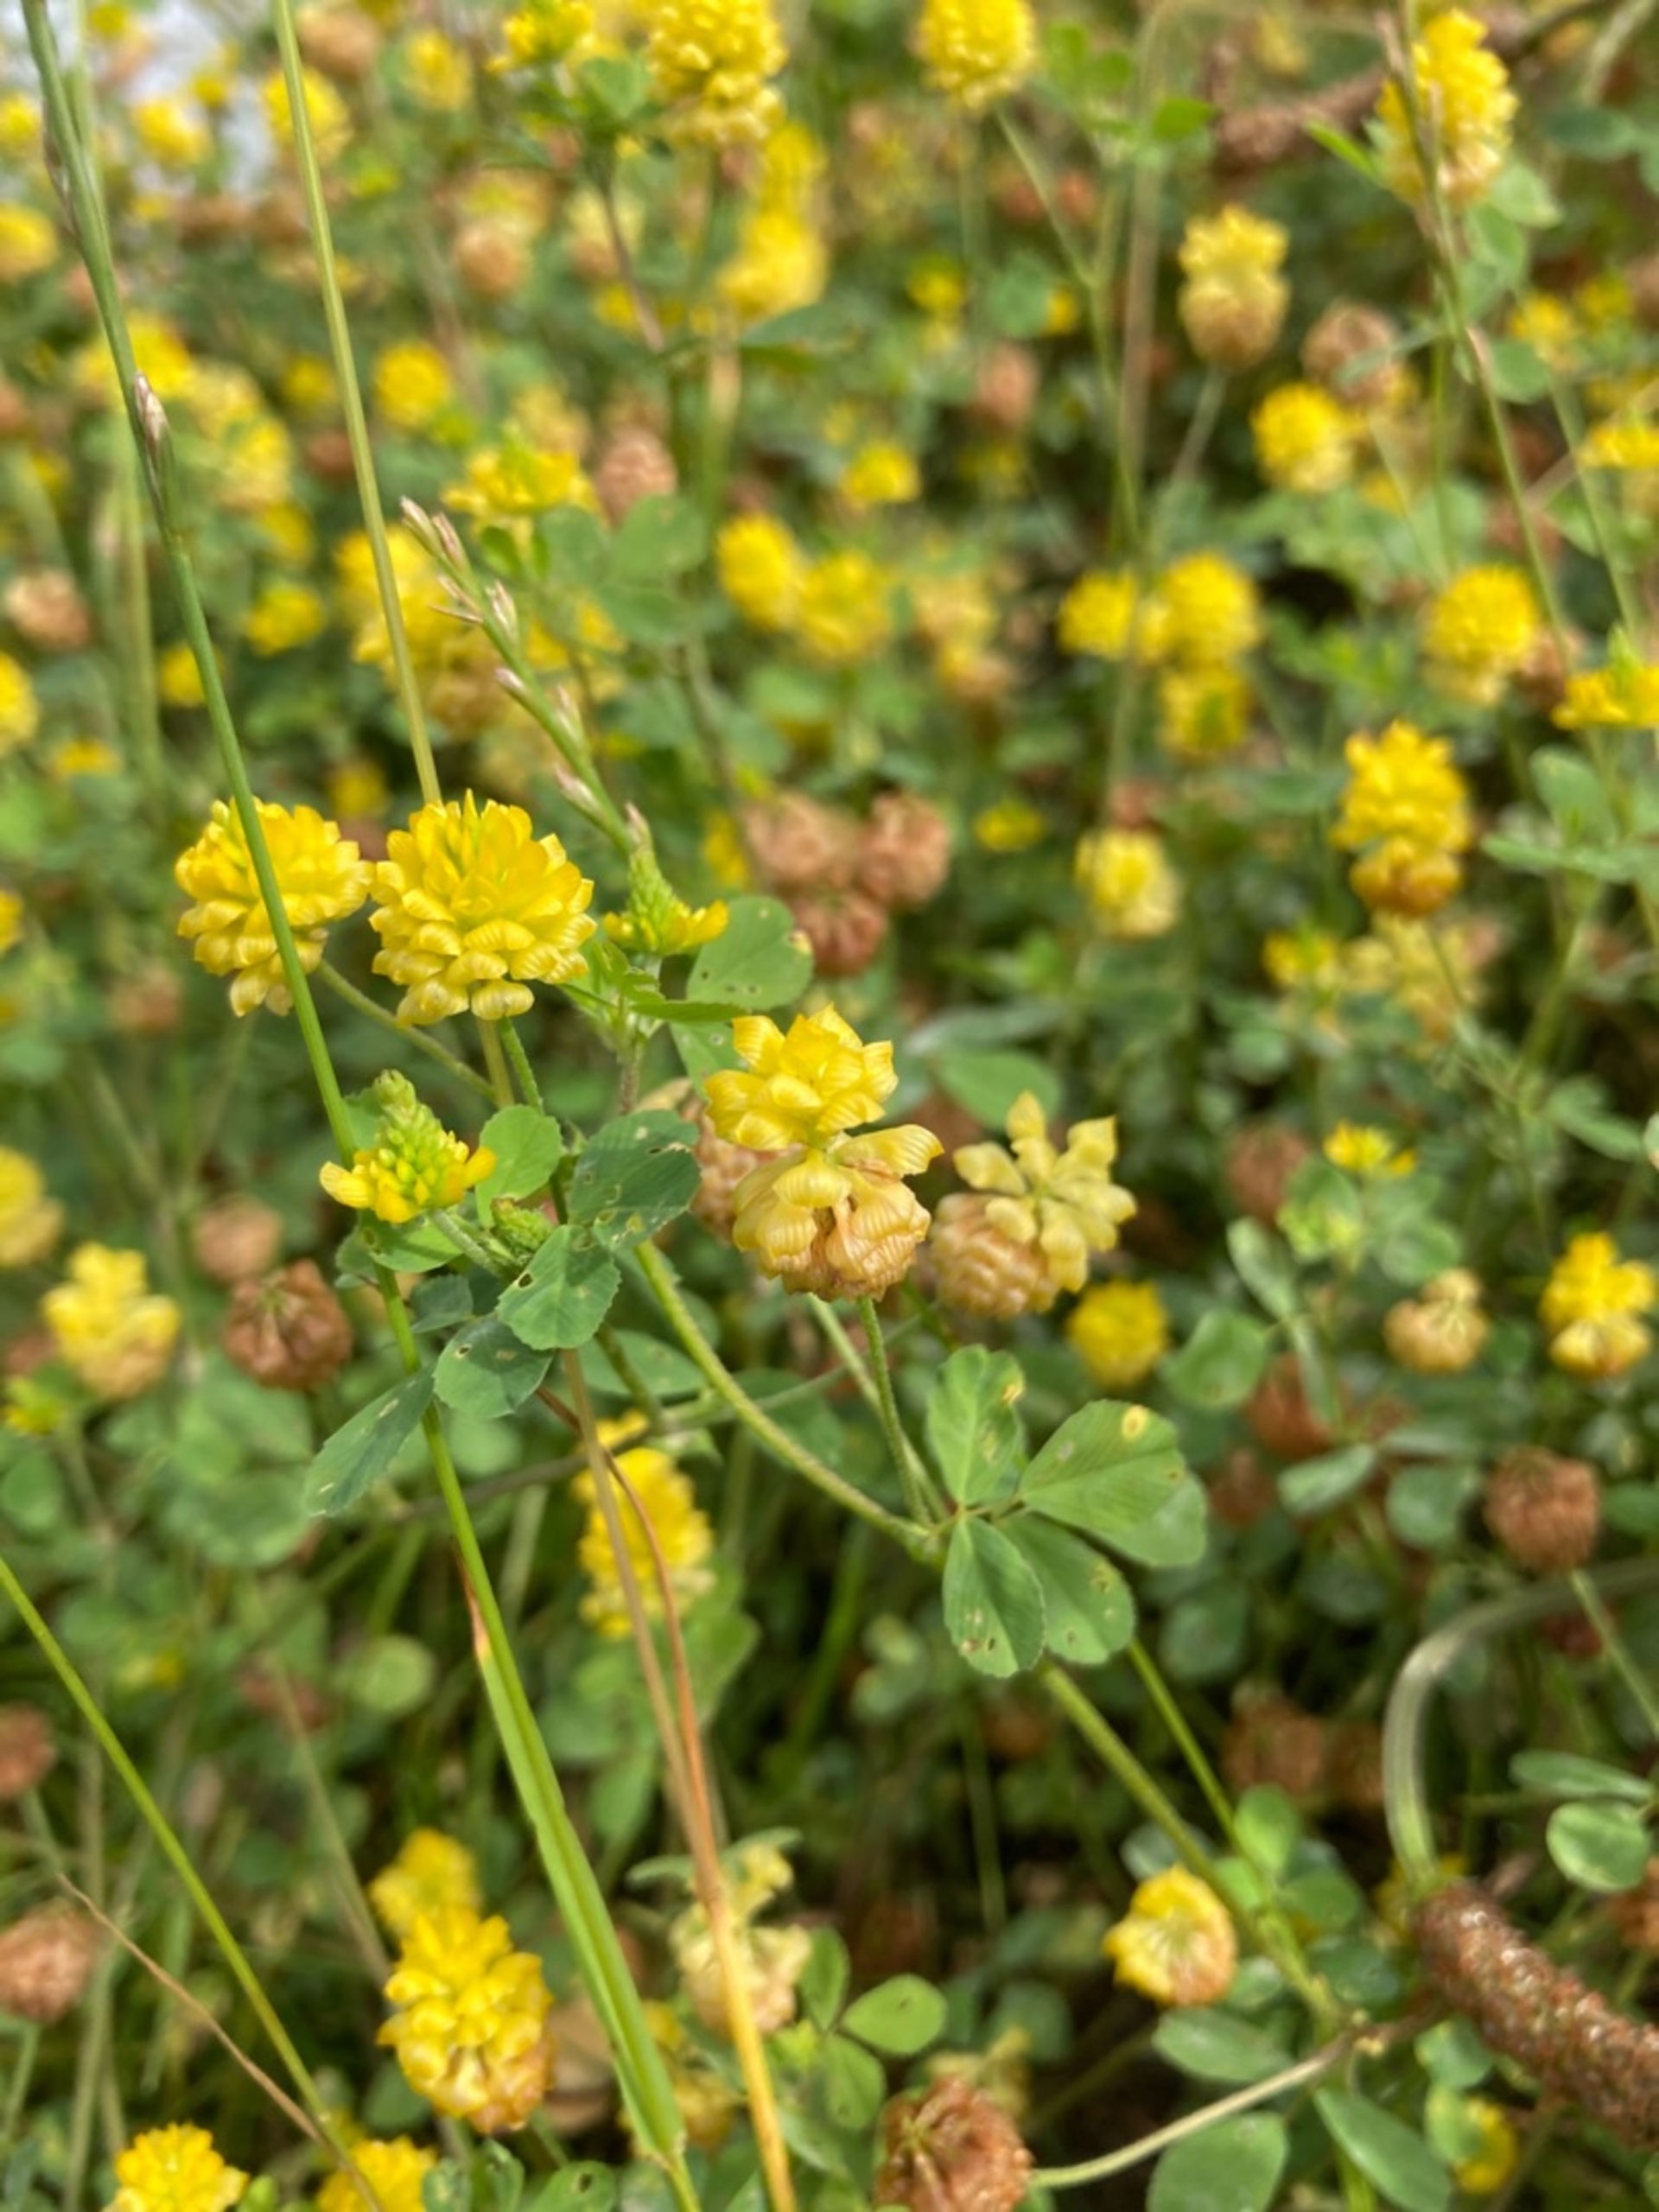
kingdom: Plantae
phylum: Tracheophyta
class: Magnoliopsida
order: Fabales
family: Fabaceae
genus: Trifolium
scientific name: Trifolium campestre
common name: Gul kløver
